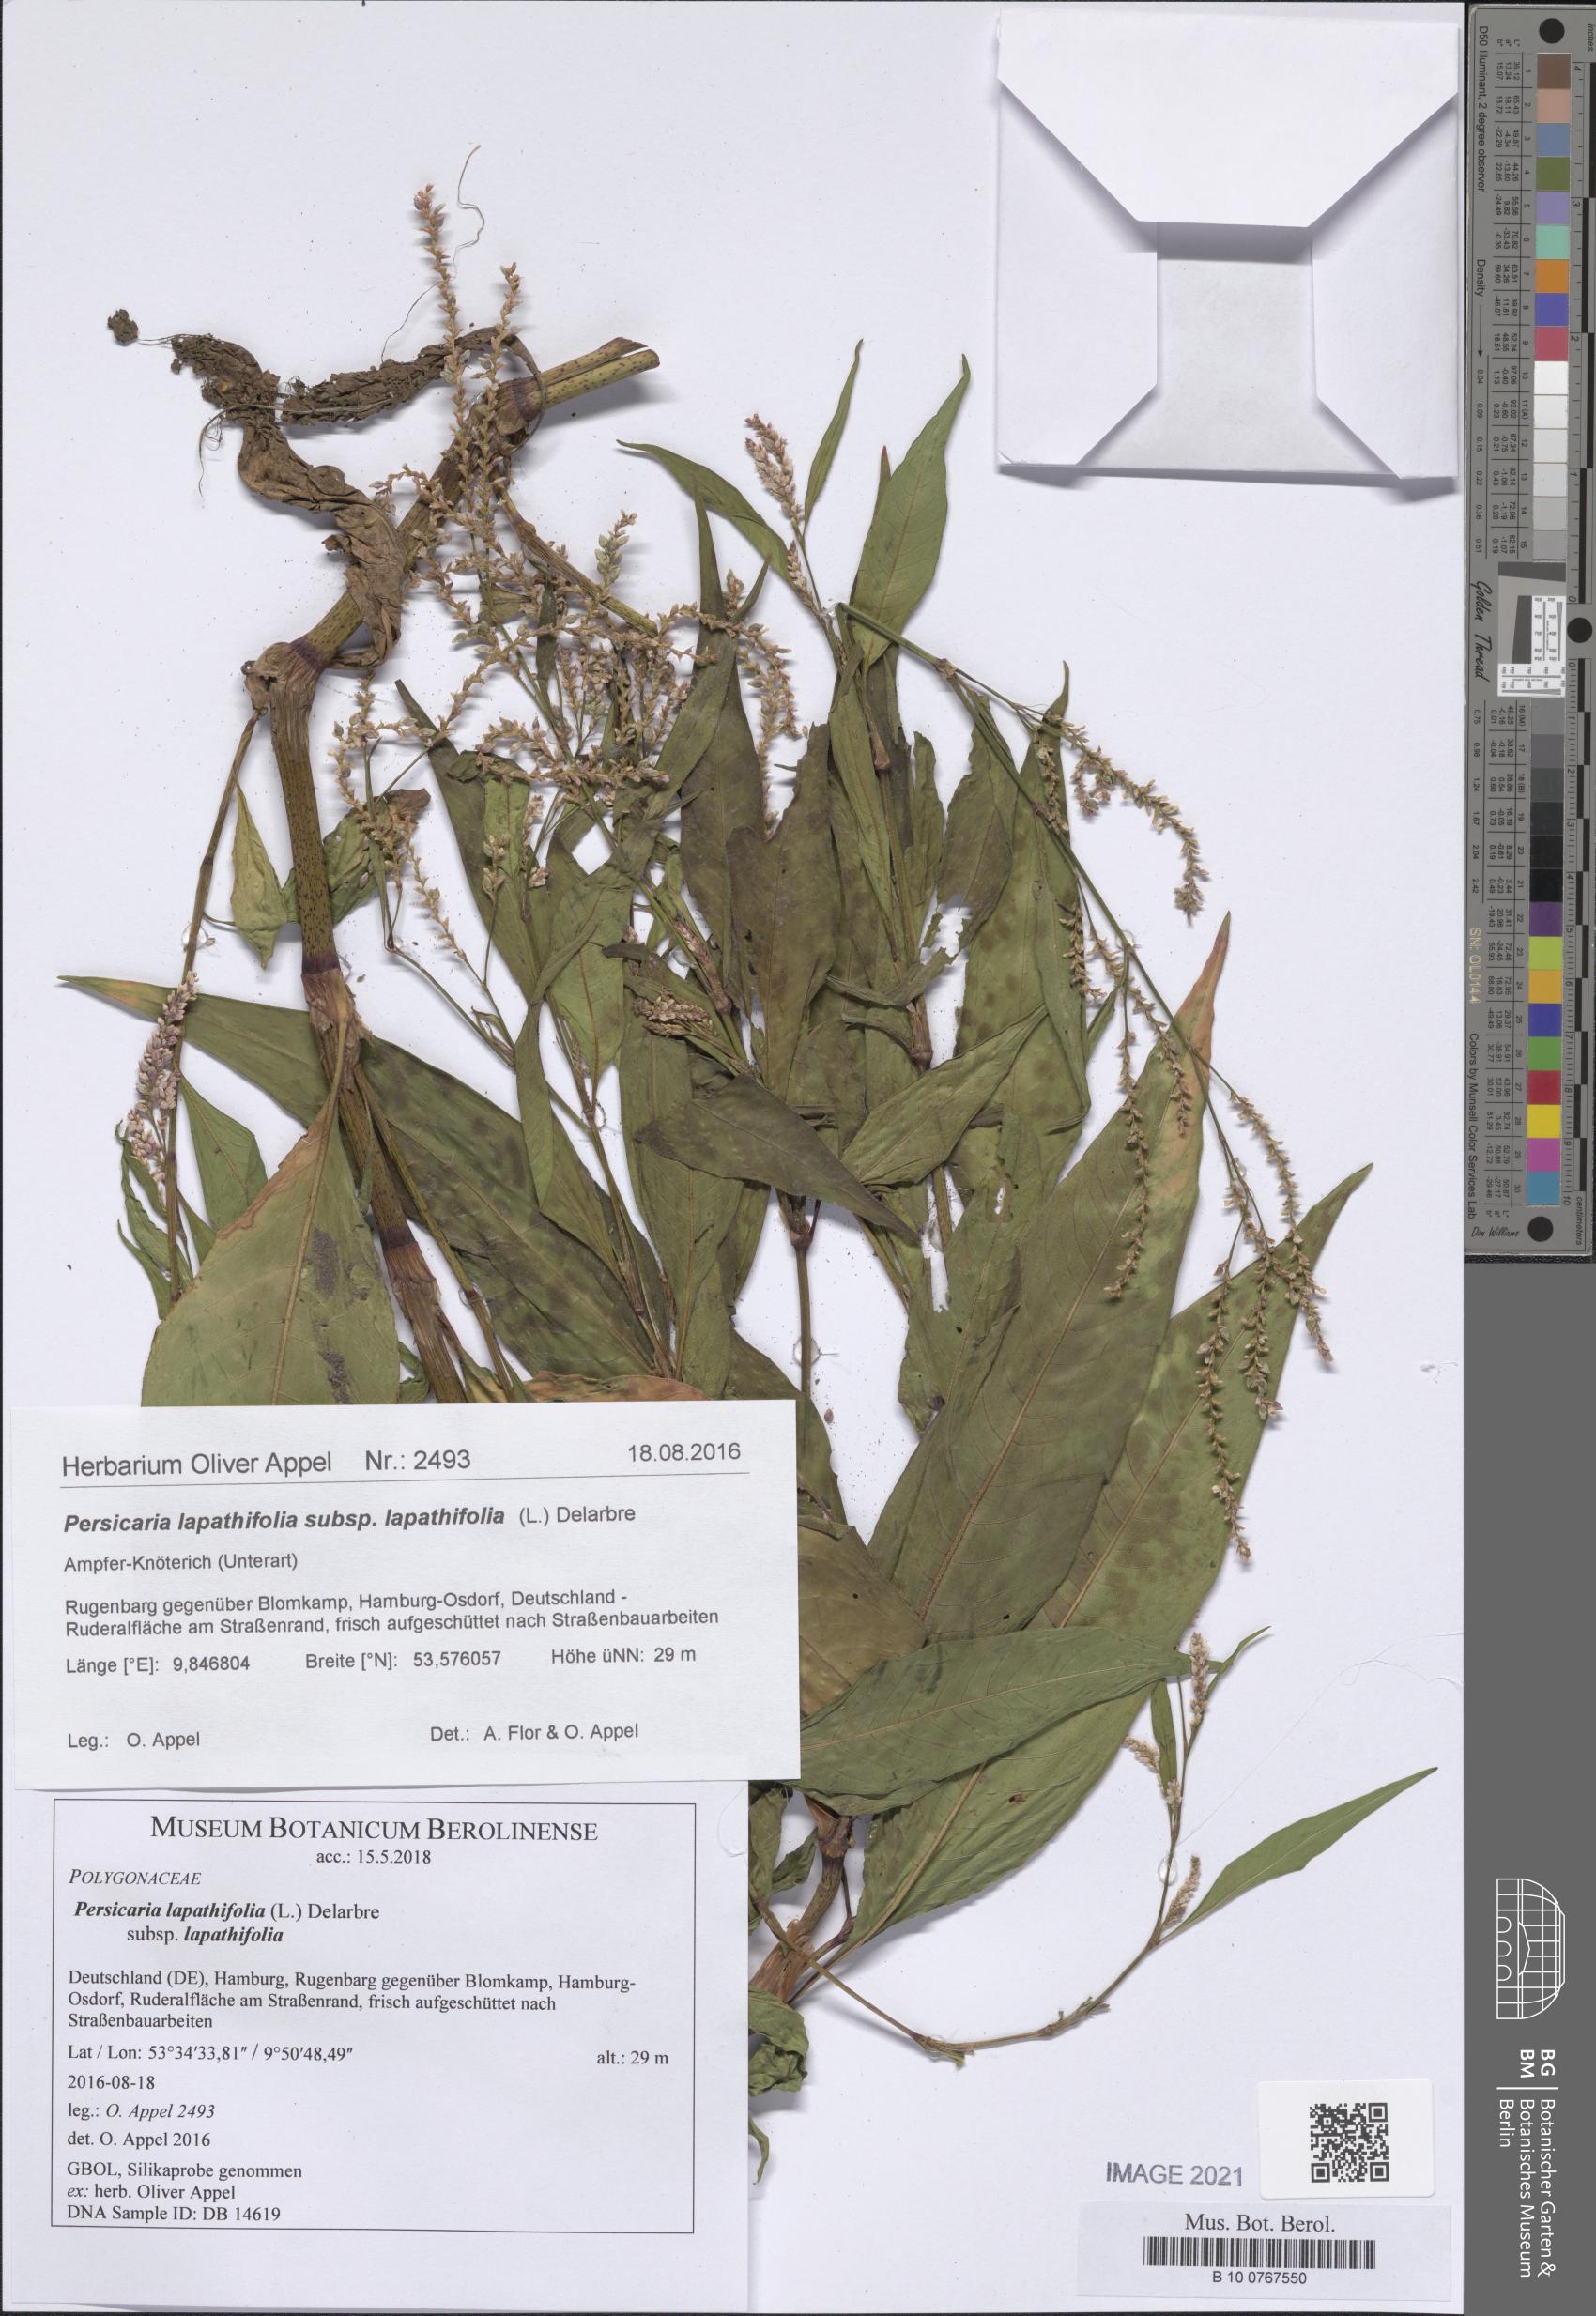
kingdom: Plantae
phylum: Tracheophyta
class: Magnoliopsida
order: Caryophyllales
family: Polygonaceae
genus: Persicaria
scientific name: Persicaria lapathifolia
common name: Curlytop knotweed
